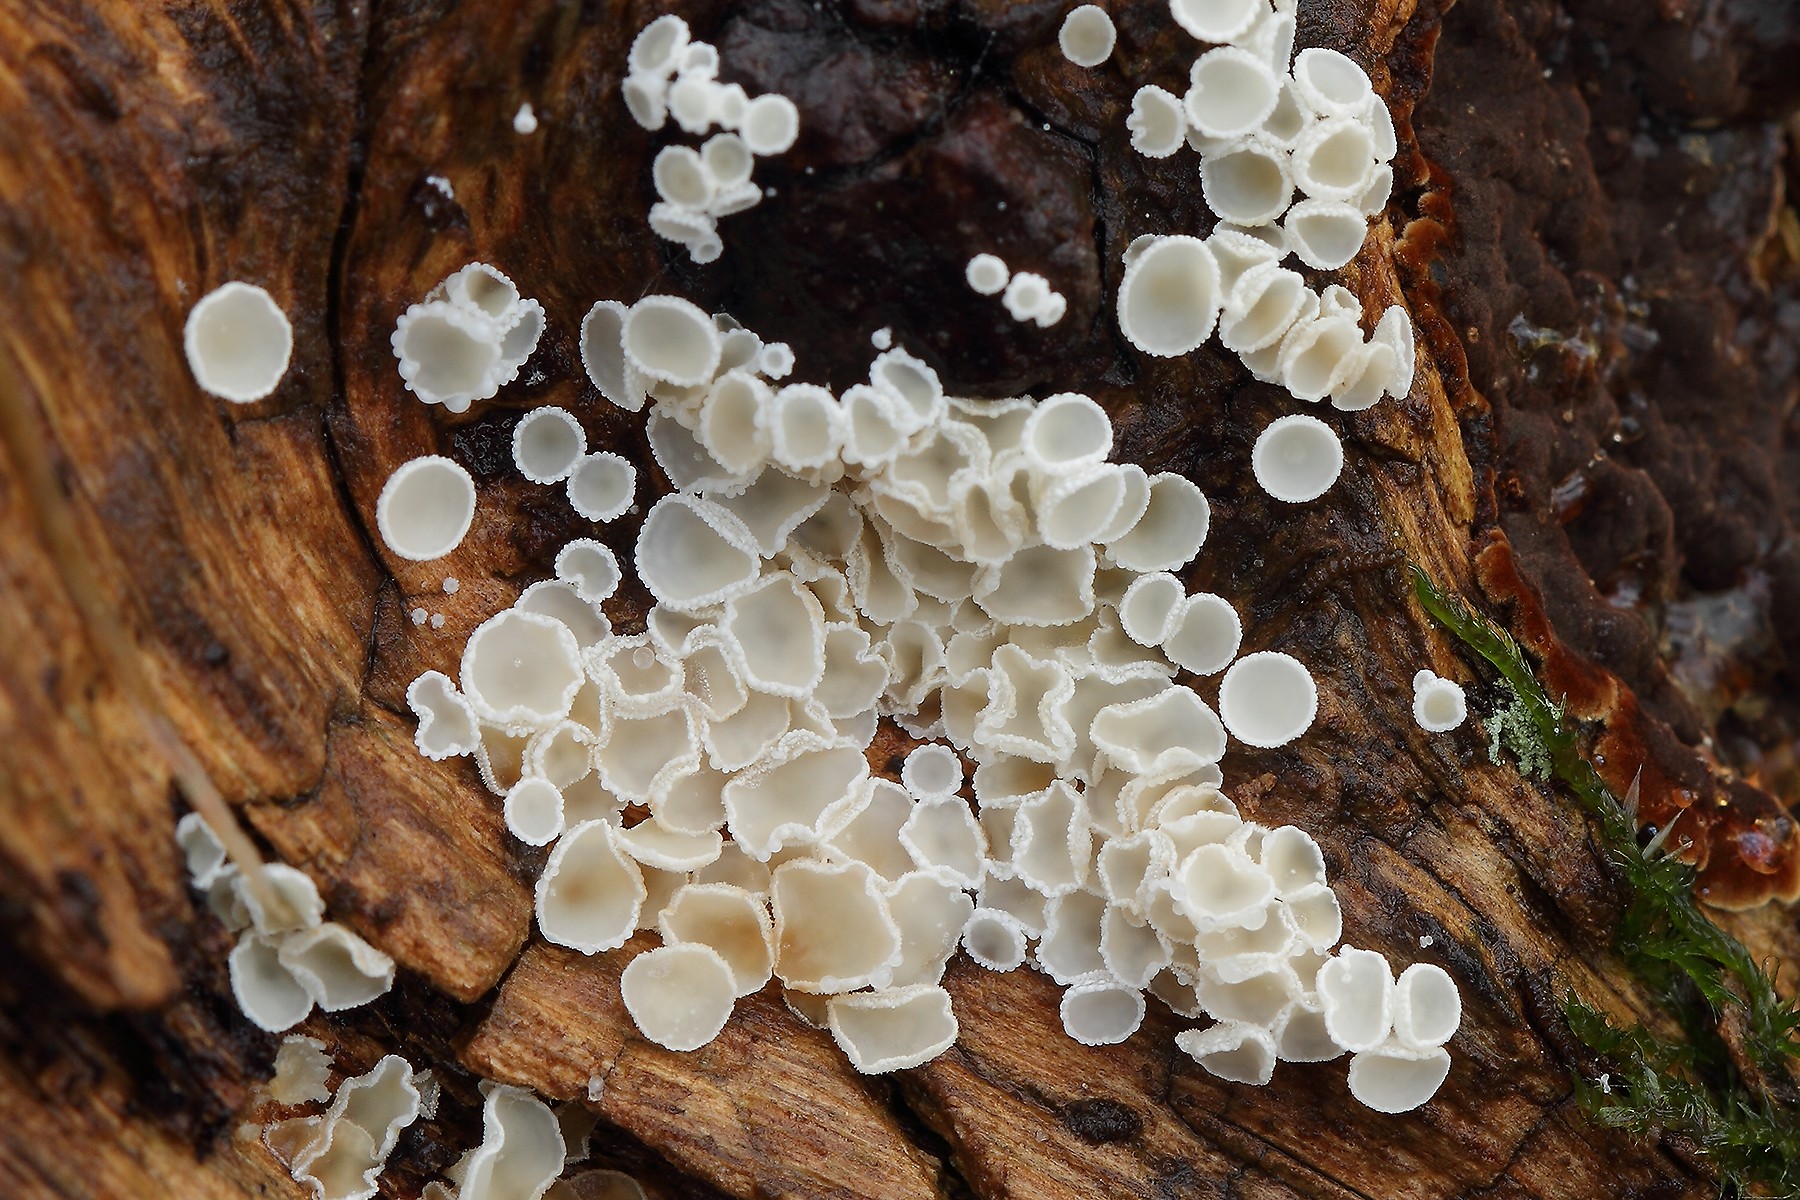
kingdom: Fungi
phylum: Ascomycota
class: Leotiomycetes
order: Helotiales
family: Hyaloscyphaceae
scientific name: Hyaloscyphaceae
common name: frynseskivefamilien
